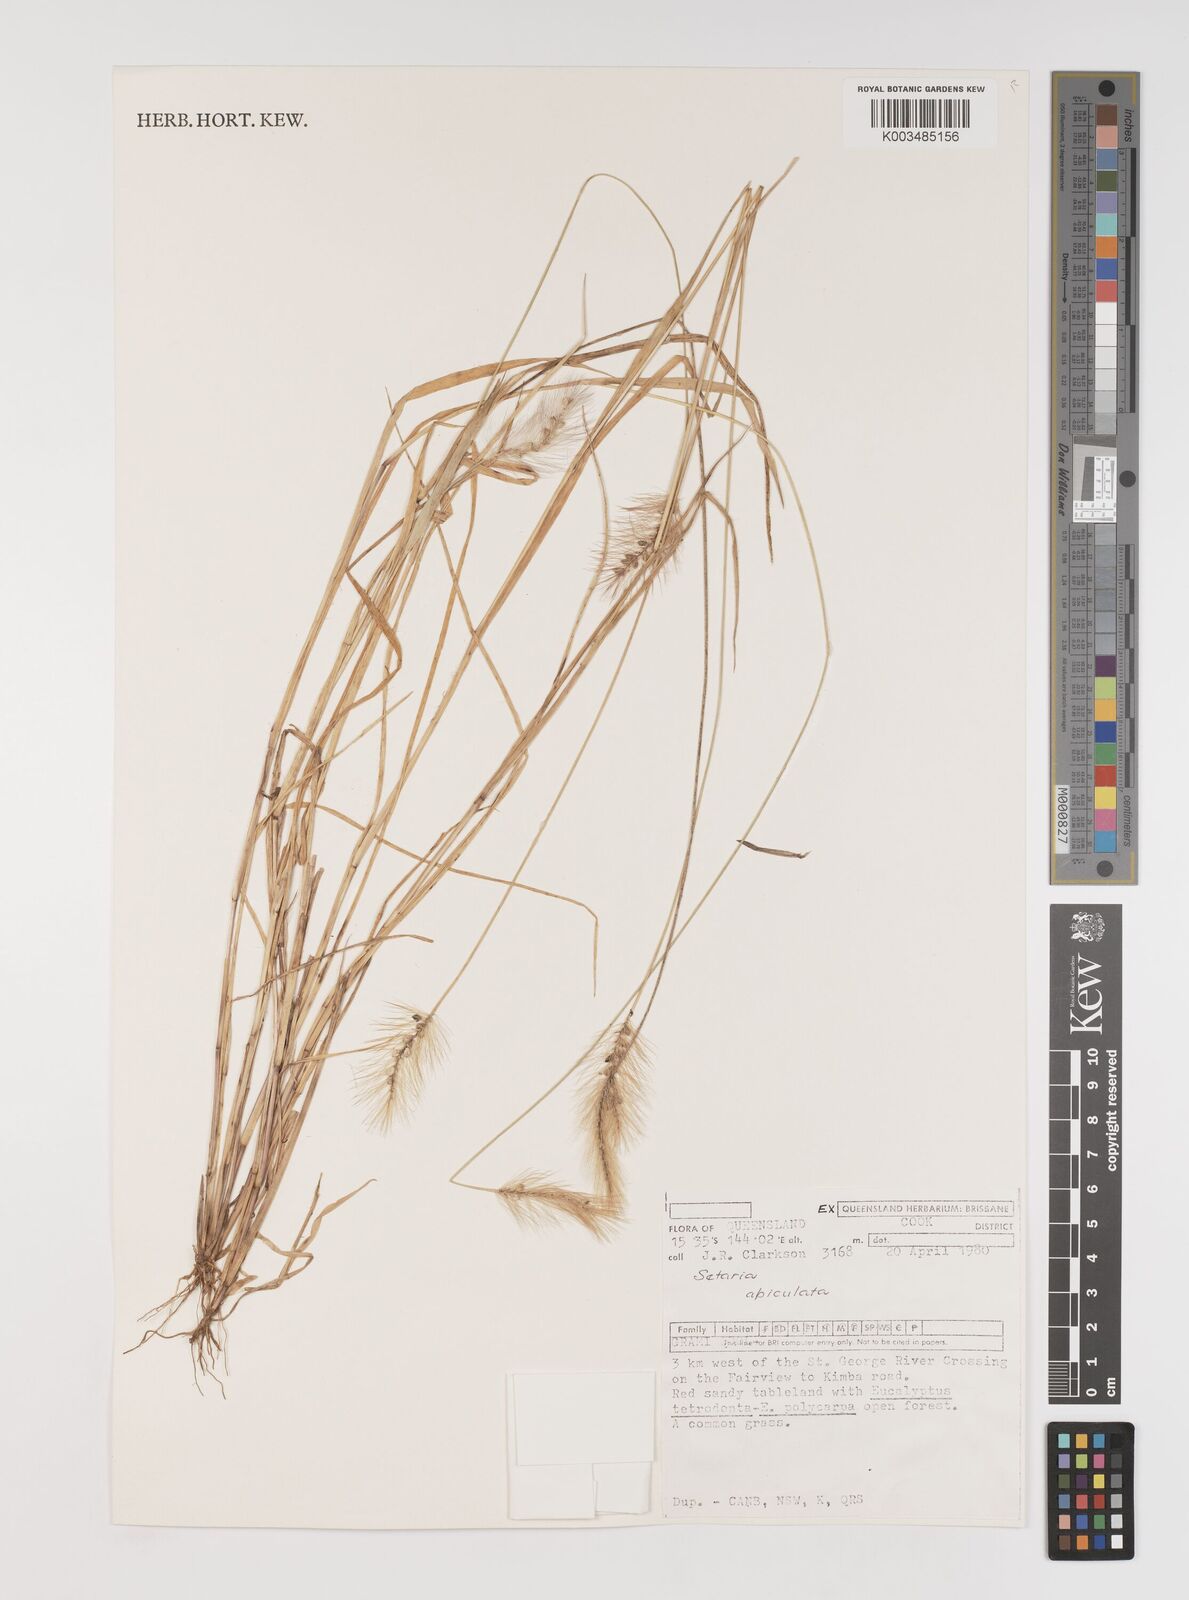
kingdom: Plantae
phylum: Tracheophyta
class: Liliopsida
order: Poales
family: Poaceae
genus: Setaria
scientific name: Setaria apiculata
